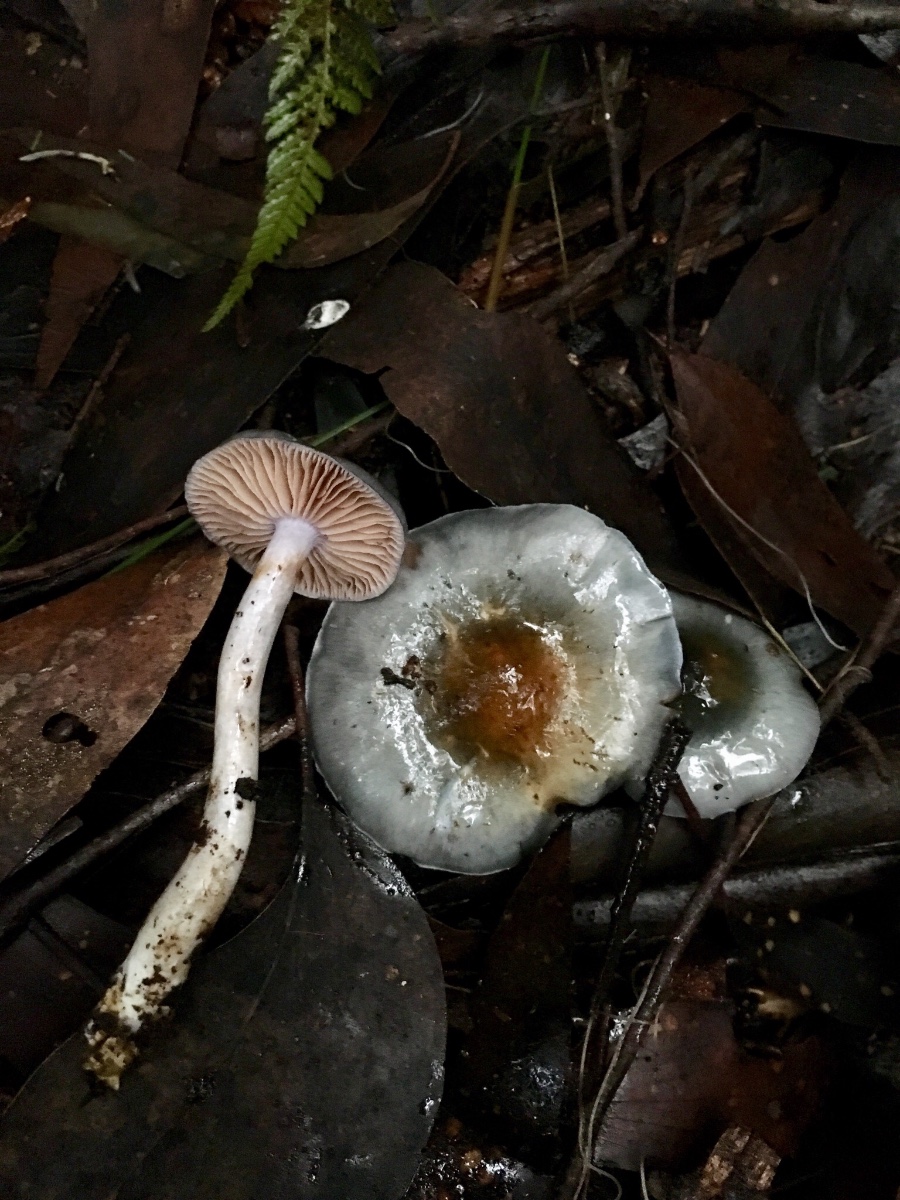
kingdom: Fungi
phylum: Basidiomycota
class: Agaricomycetes
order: Agaricales
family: Cortinariaceae
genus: Cortinarius
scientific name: Cortinarius rotundisporus
